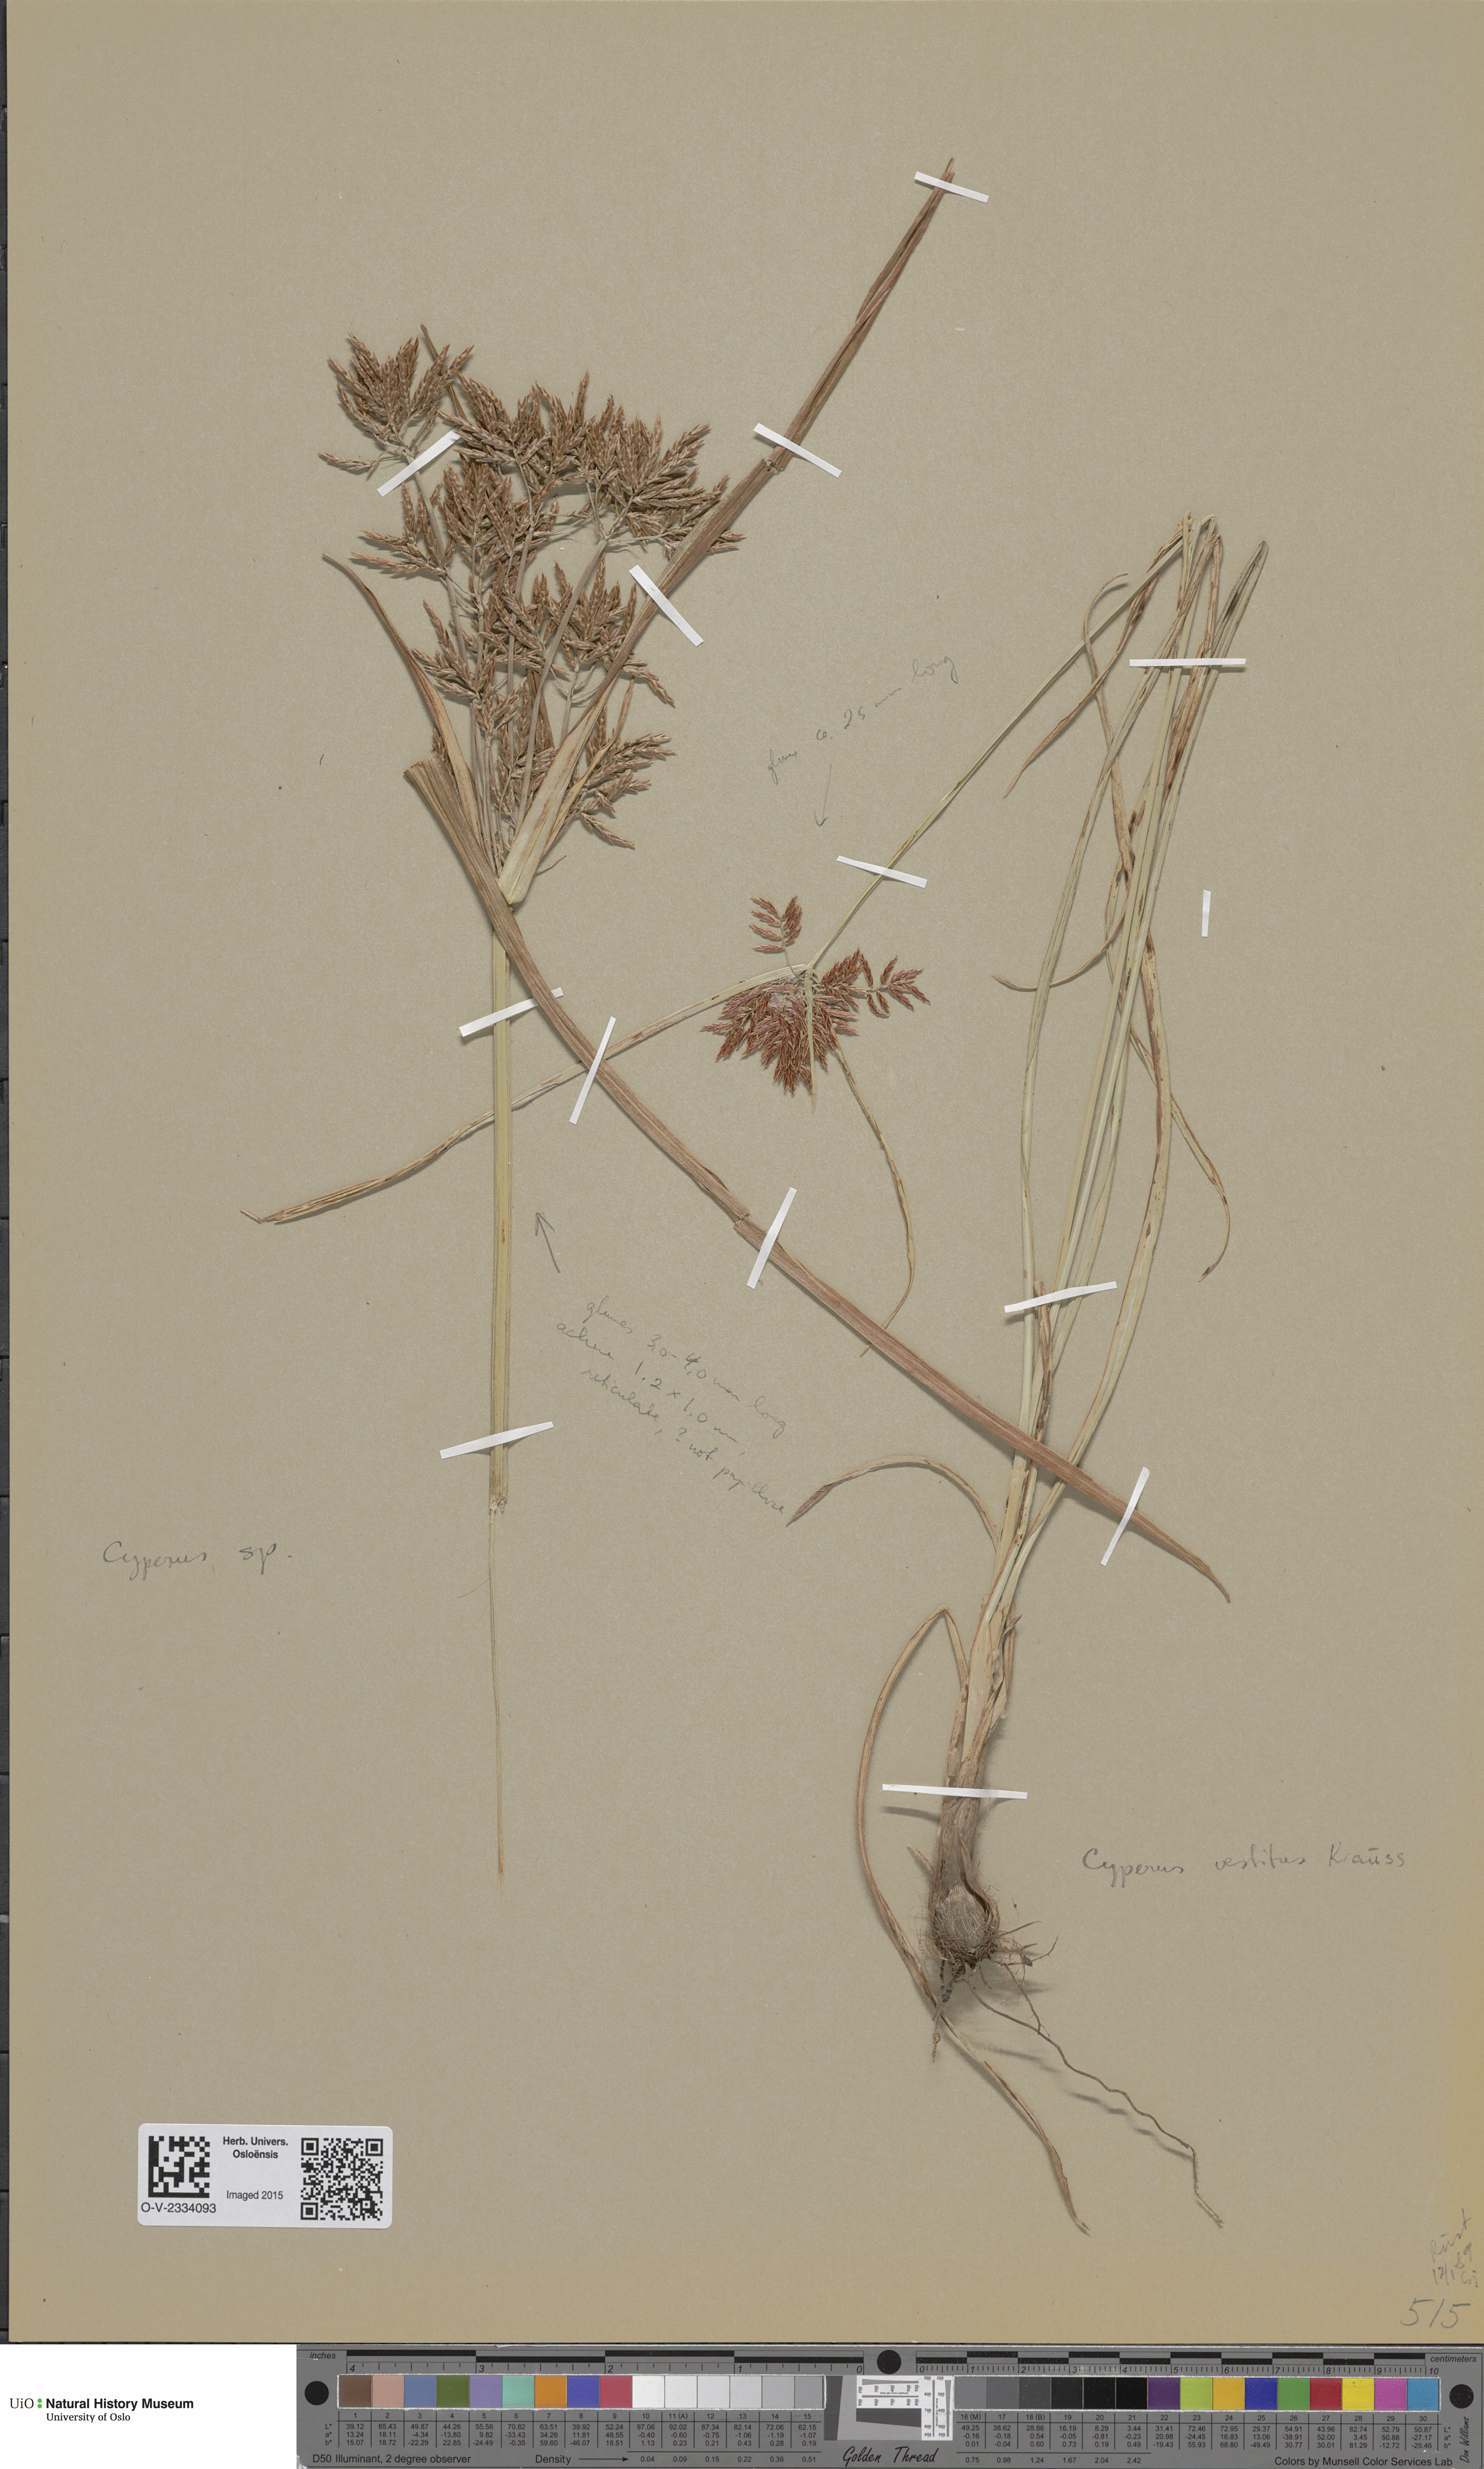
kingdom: Plantae
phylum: Tracheophyta
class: Liliopsida
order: Poales
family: Poaceae
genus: Poa
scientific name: Poa alpina
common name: Alpine bluegrass
